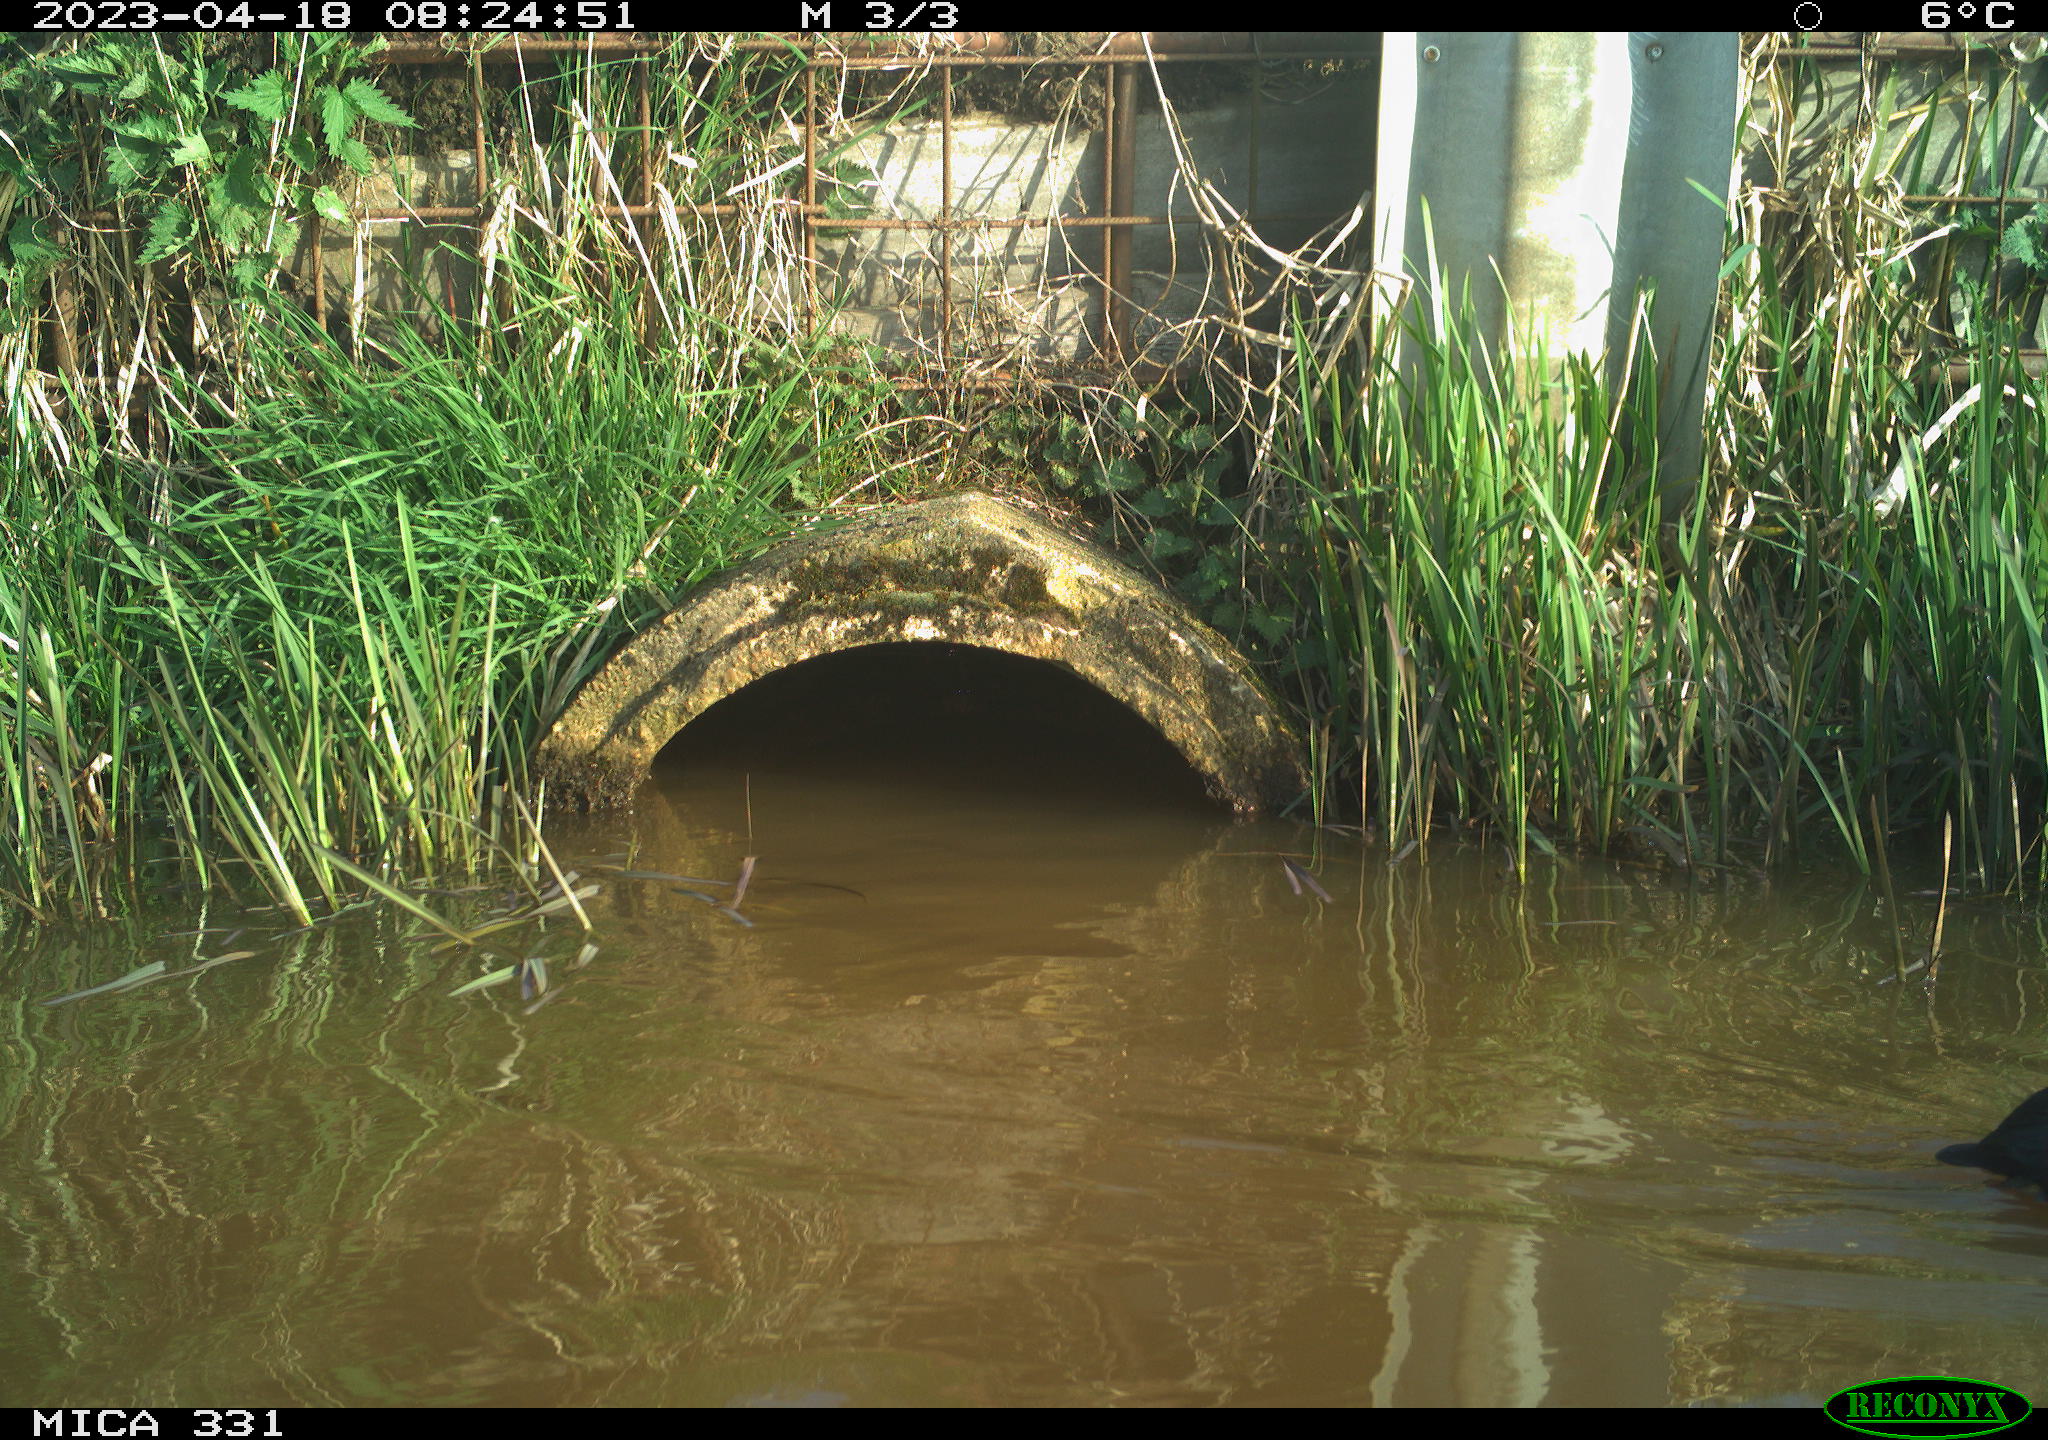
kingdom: Animalia
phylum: Chordata
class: Aves
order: Gruiformes
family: Rallidae
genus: Fulica
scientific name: Fulica atra
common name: Eurasian coot
